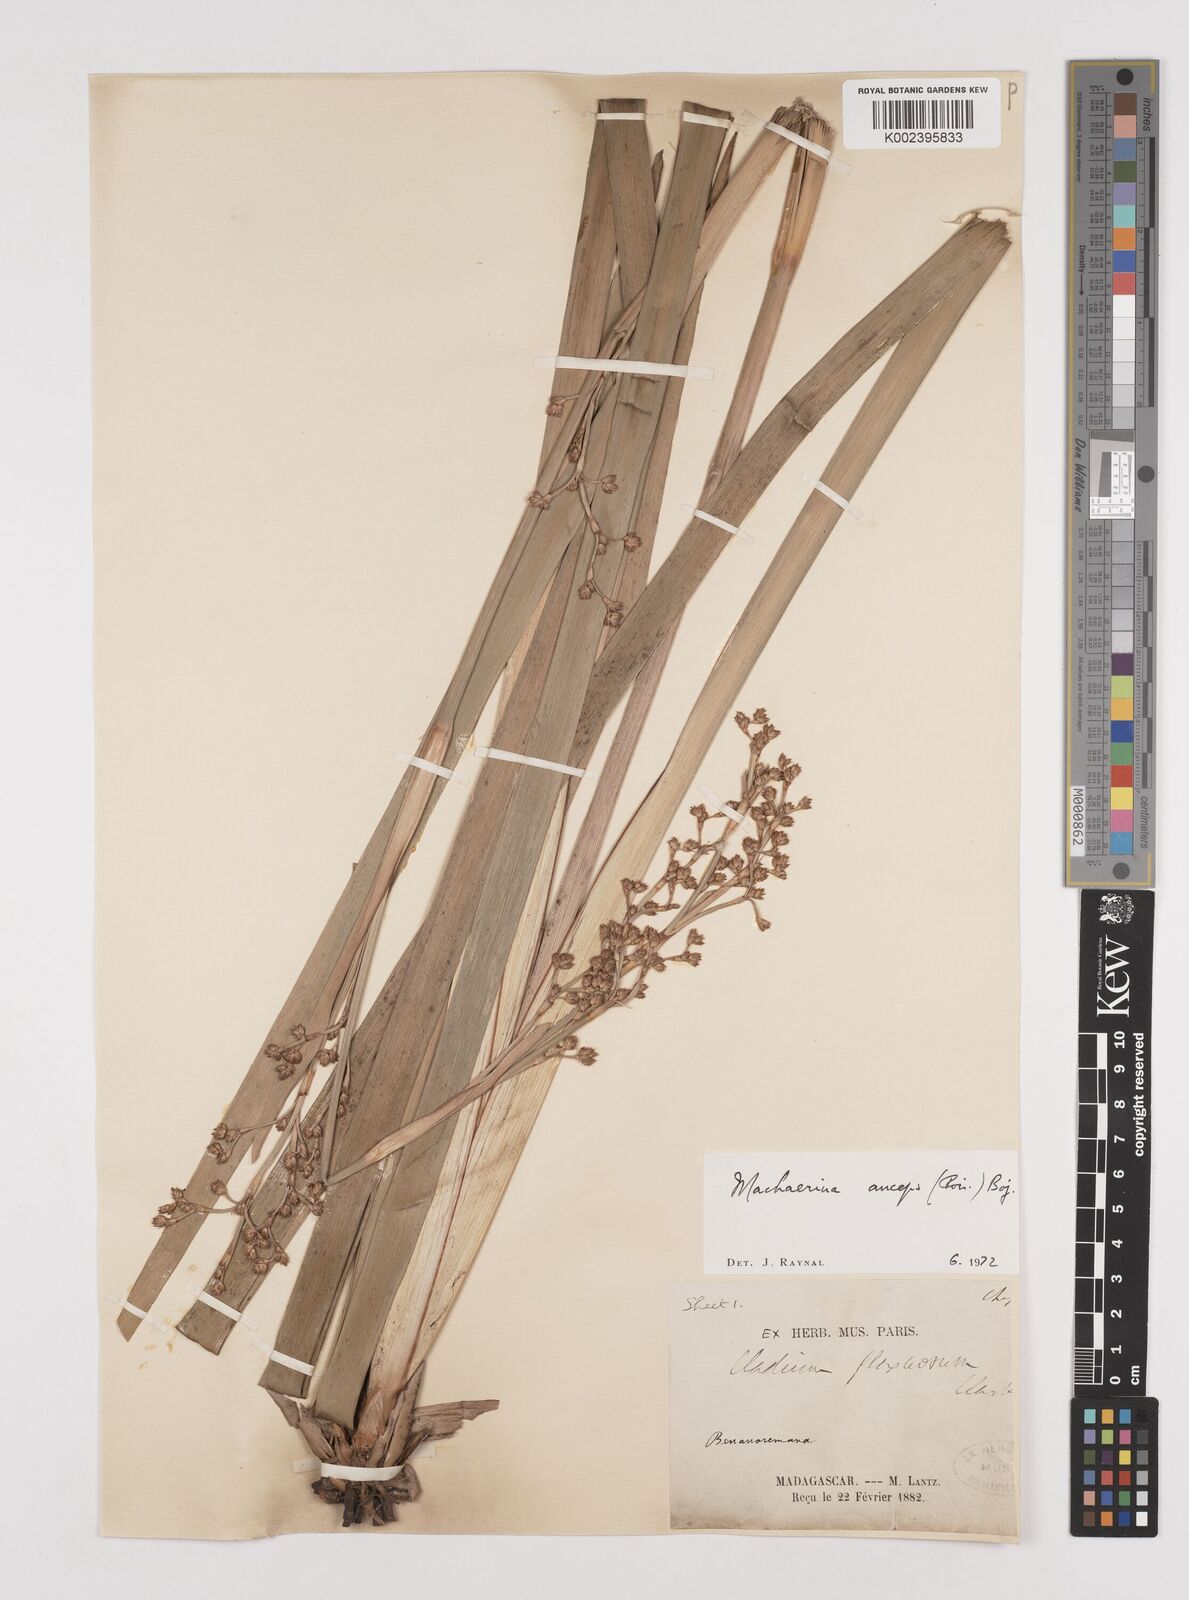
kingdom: Plantae
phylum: Tracheophyta
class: Liliopsida
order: Poales
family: Cyperaceae
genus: Machaerina
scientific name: Machaerina anceps
